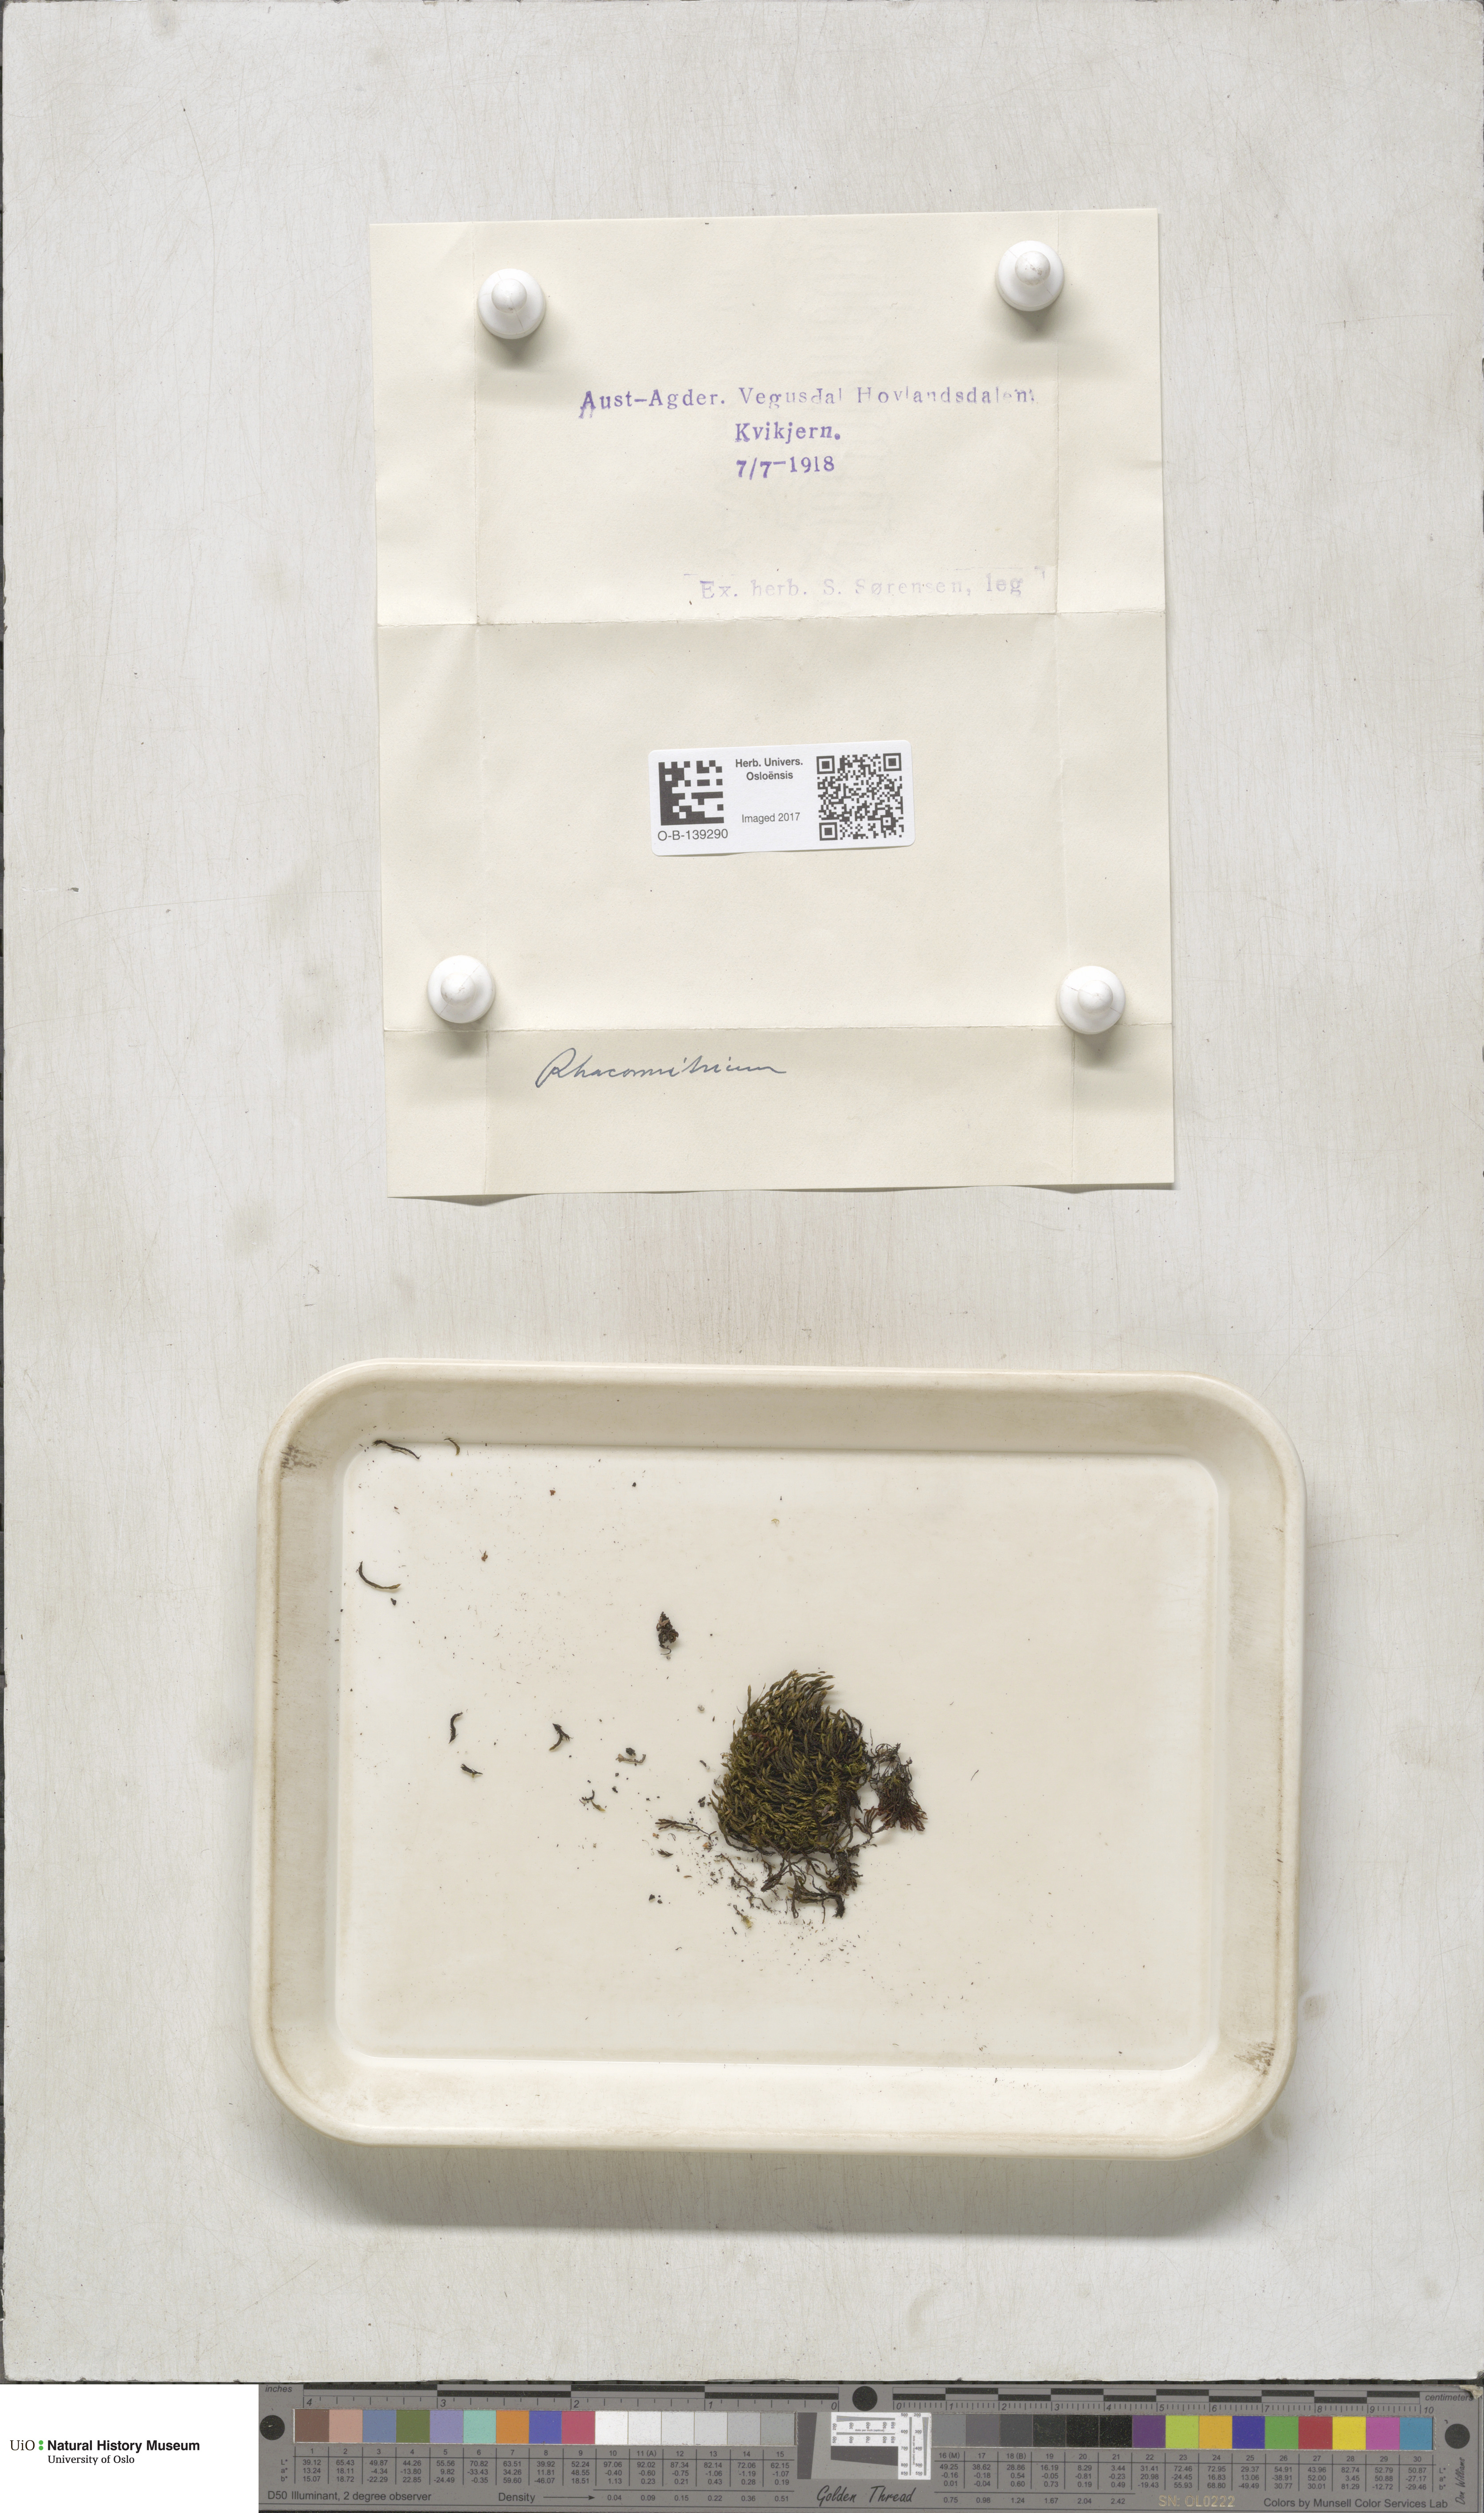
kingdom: Plantae
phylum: Bryophyta
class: Bryopsida
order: Grimmiales
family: Grimmiaceae
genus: Racomitrium
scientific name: Racomitrium
